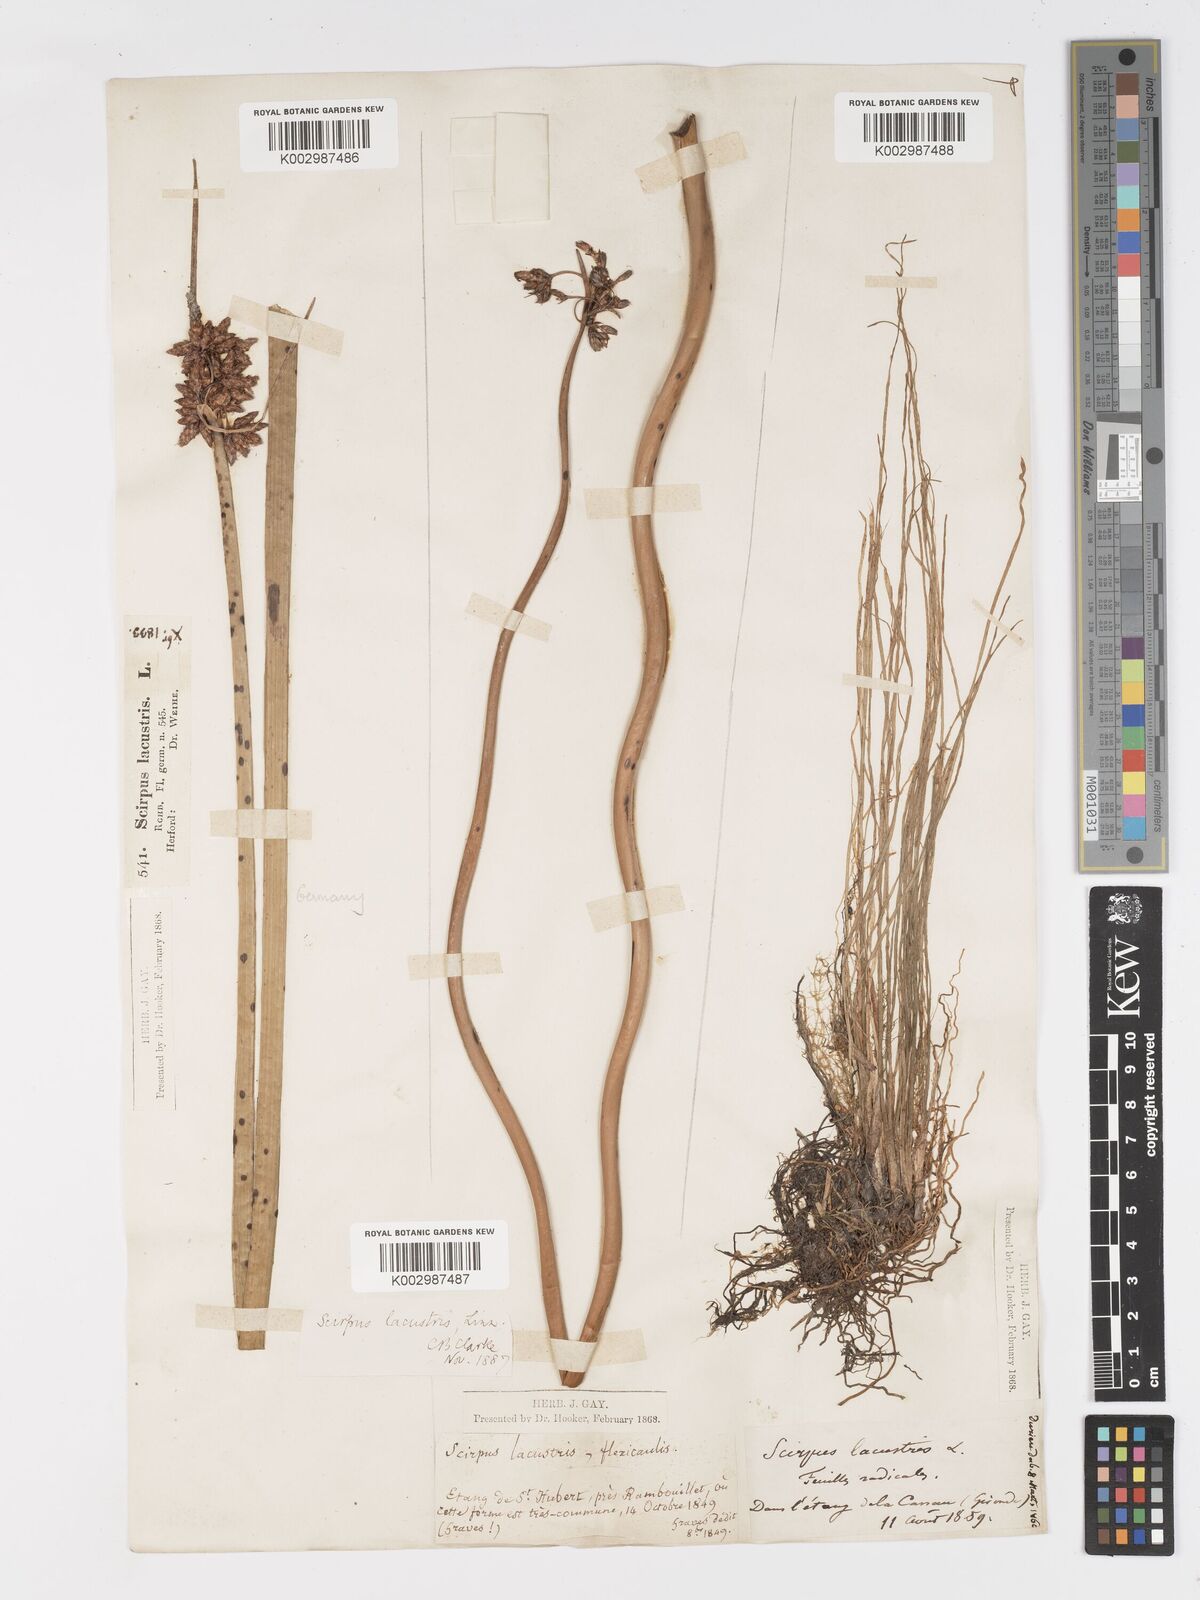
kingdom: Plantae
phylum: Tracheophyta
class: Liliopsida
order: Poales
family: Cyperaceae
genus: Schoenoplectus
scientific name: Schoenoplectus lacustris
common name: Common club-rush
